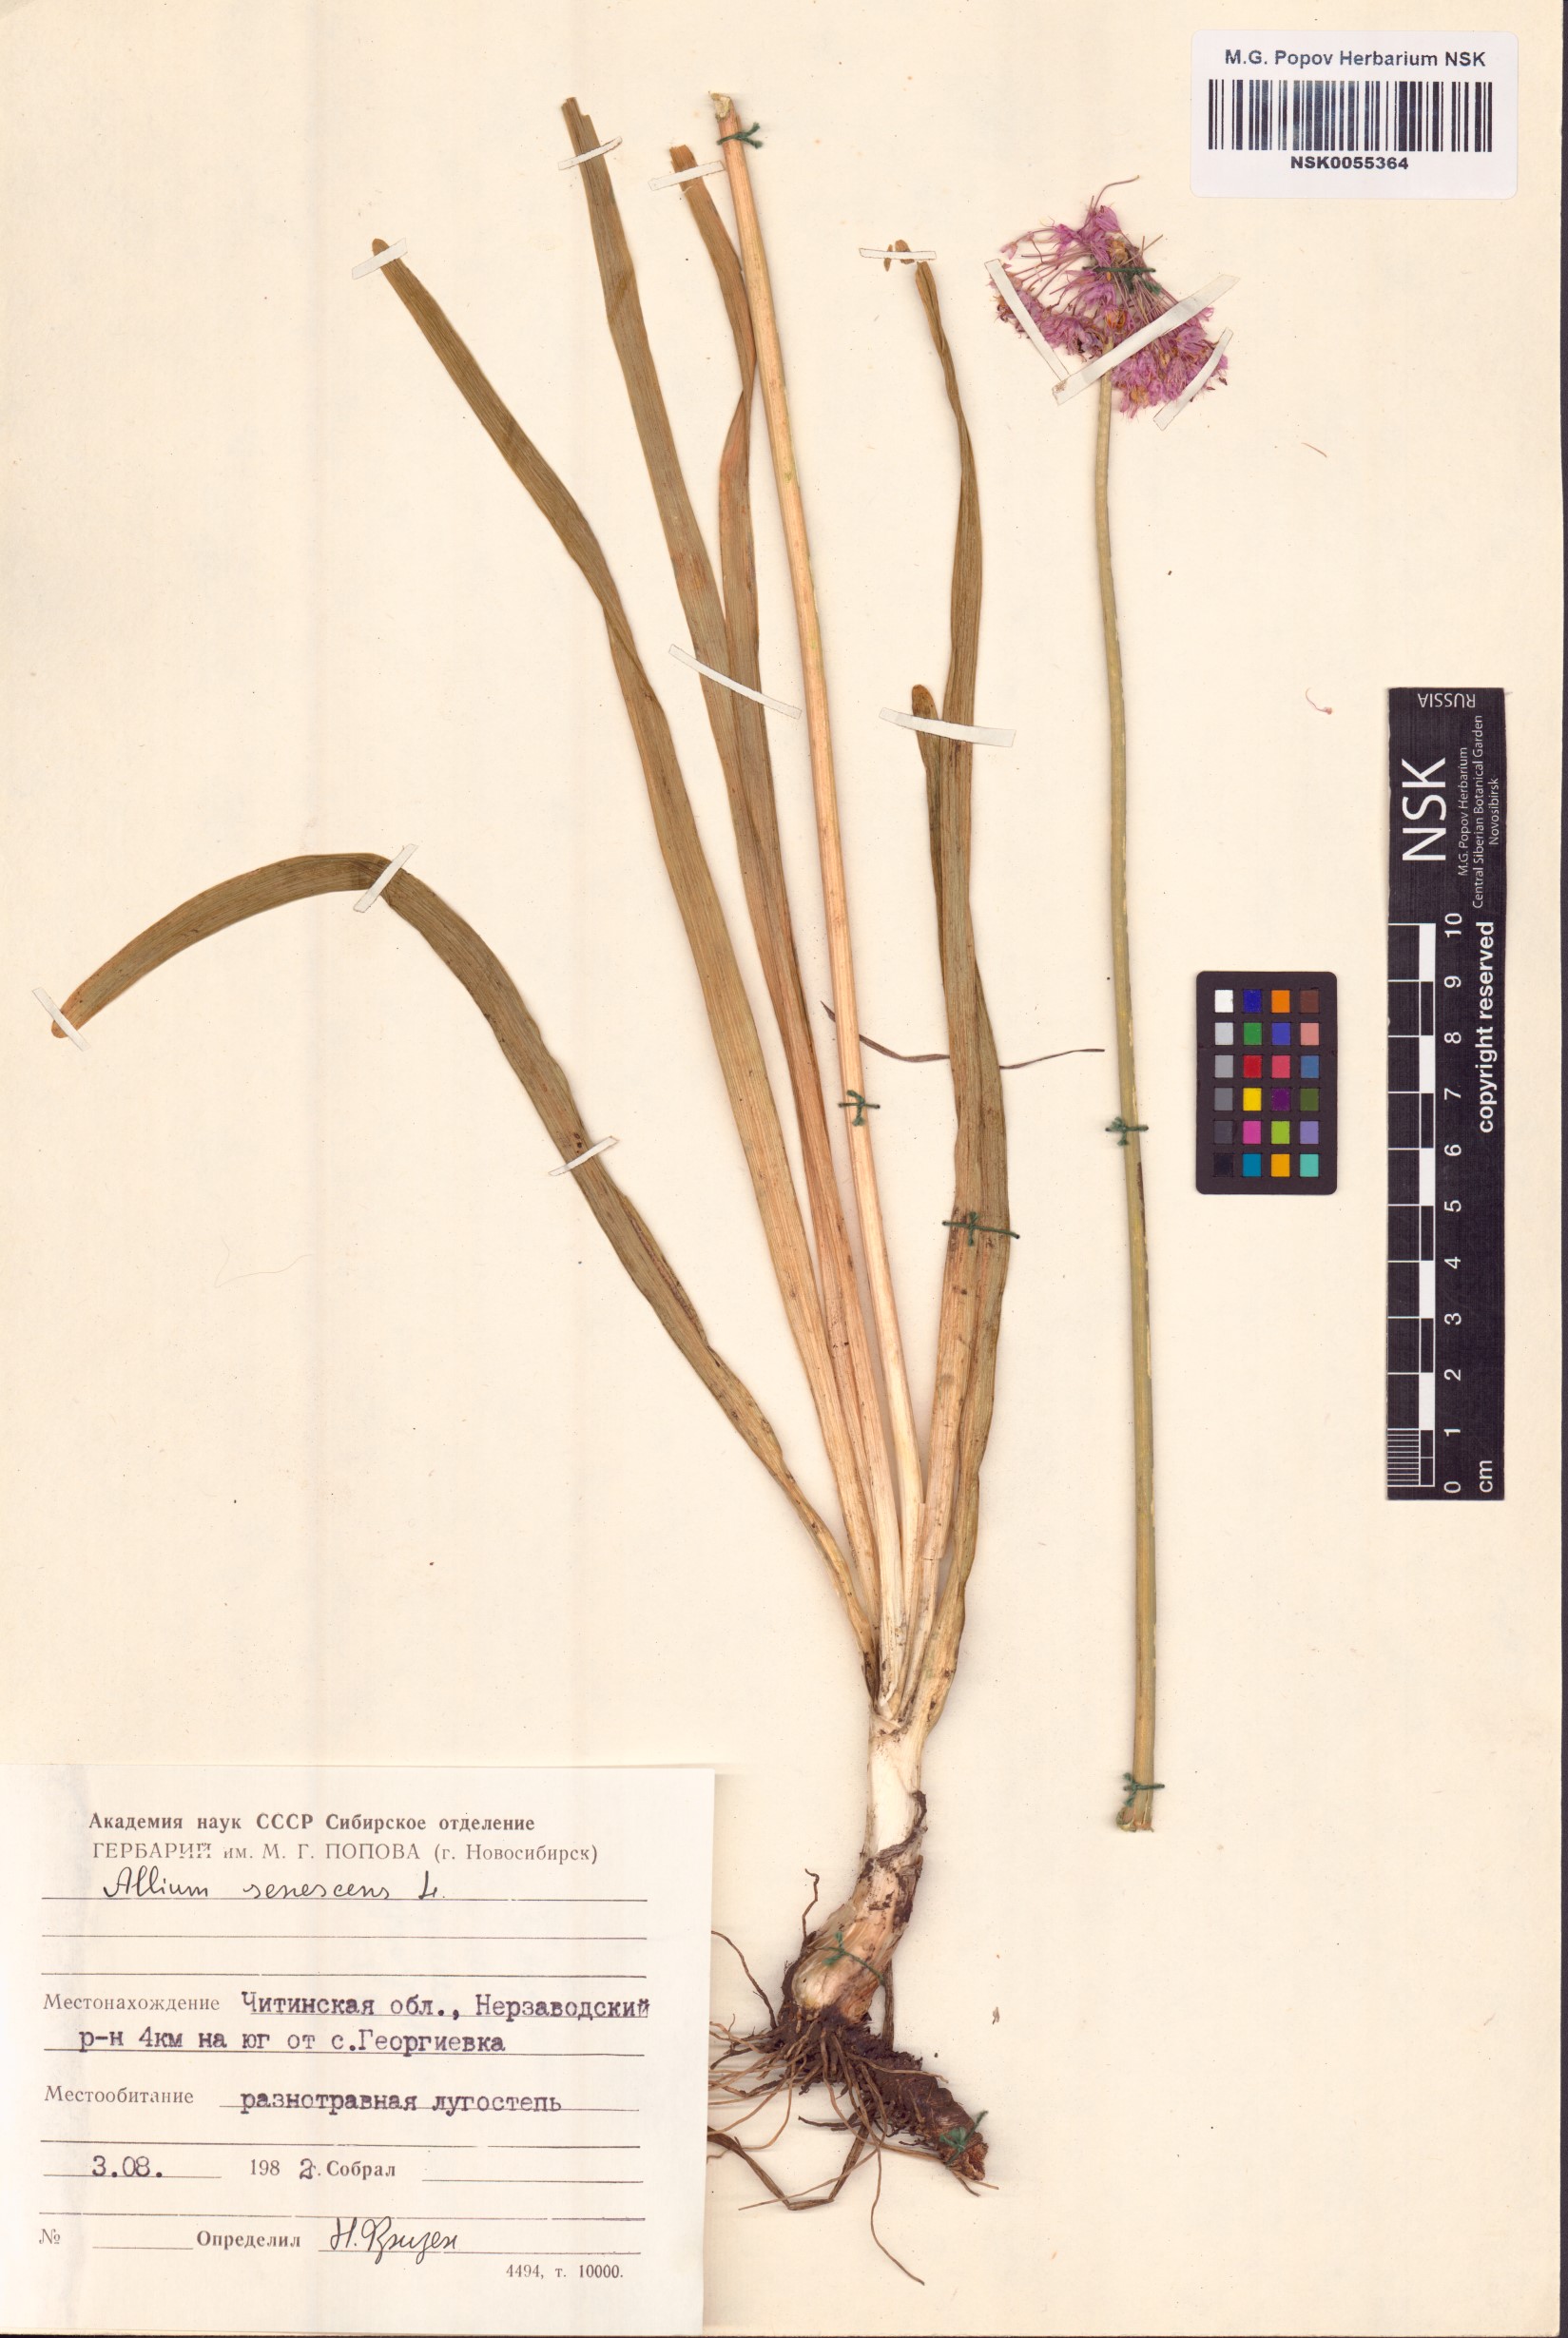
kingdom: Plantae
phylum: Tracheophyta
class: Liliopsida
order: Asparagales
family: Amaryllidaceae
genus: Allium
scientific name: Allium senescens
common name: German garlic
